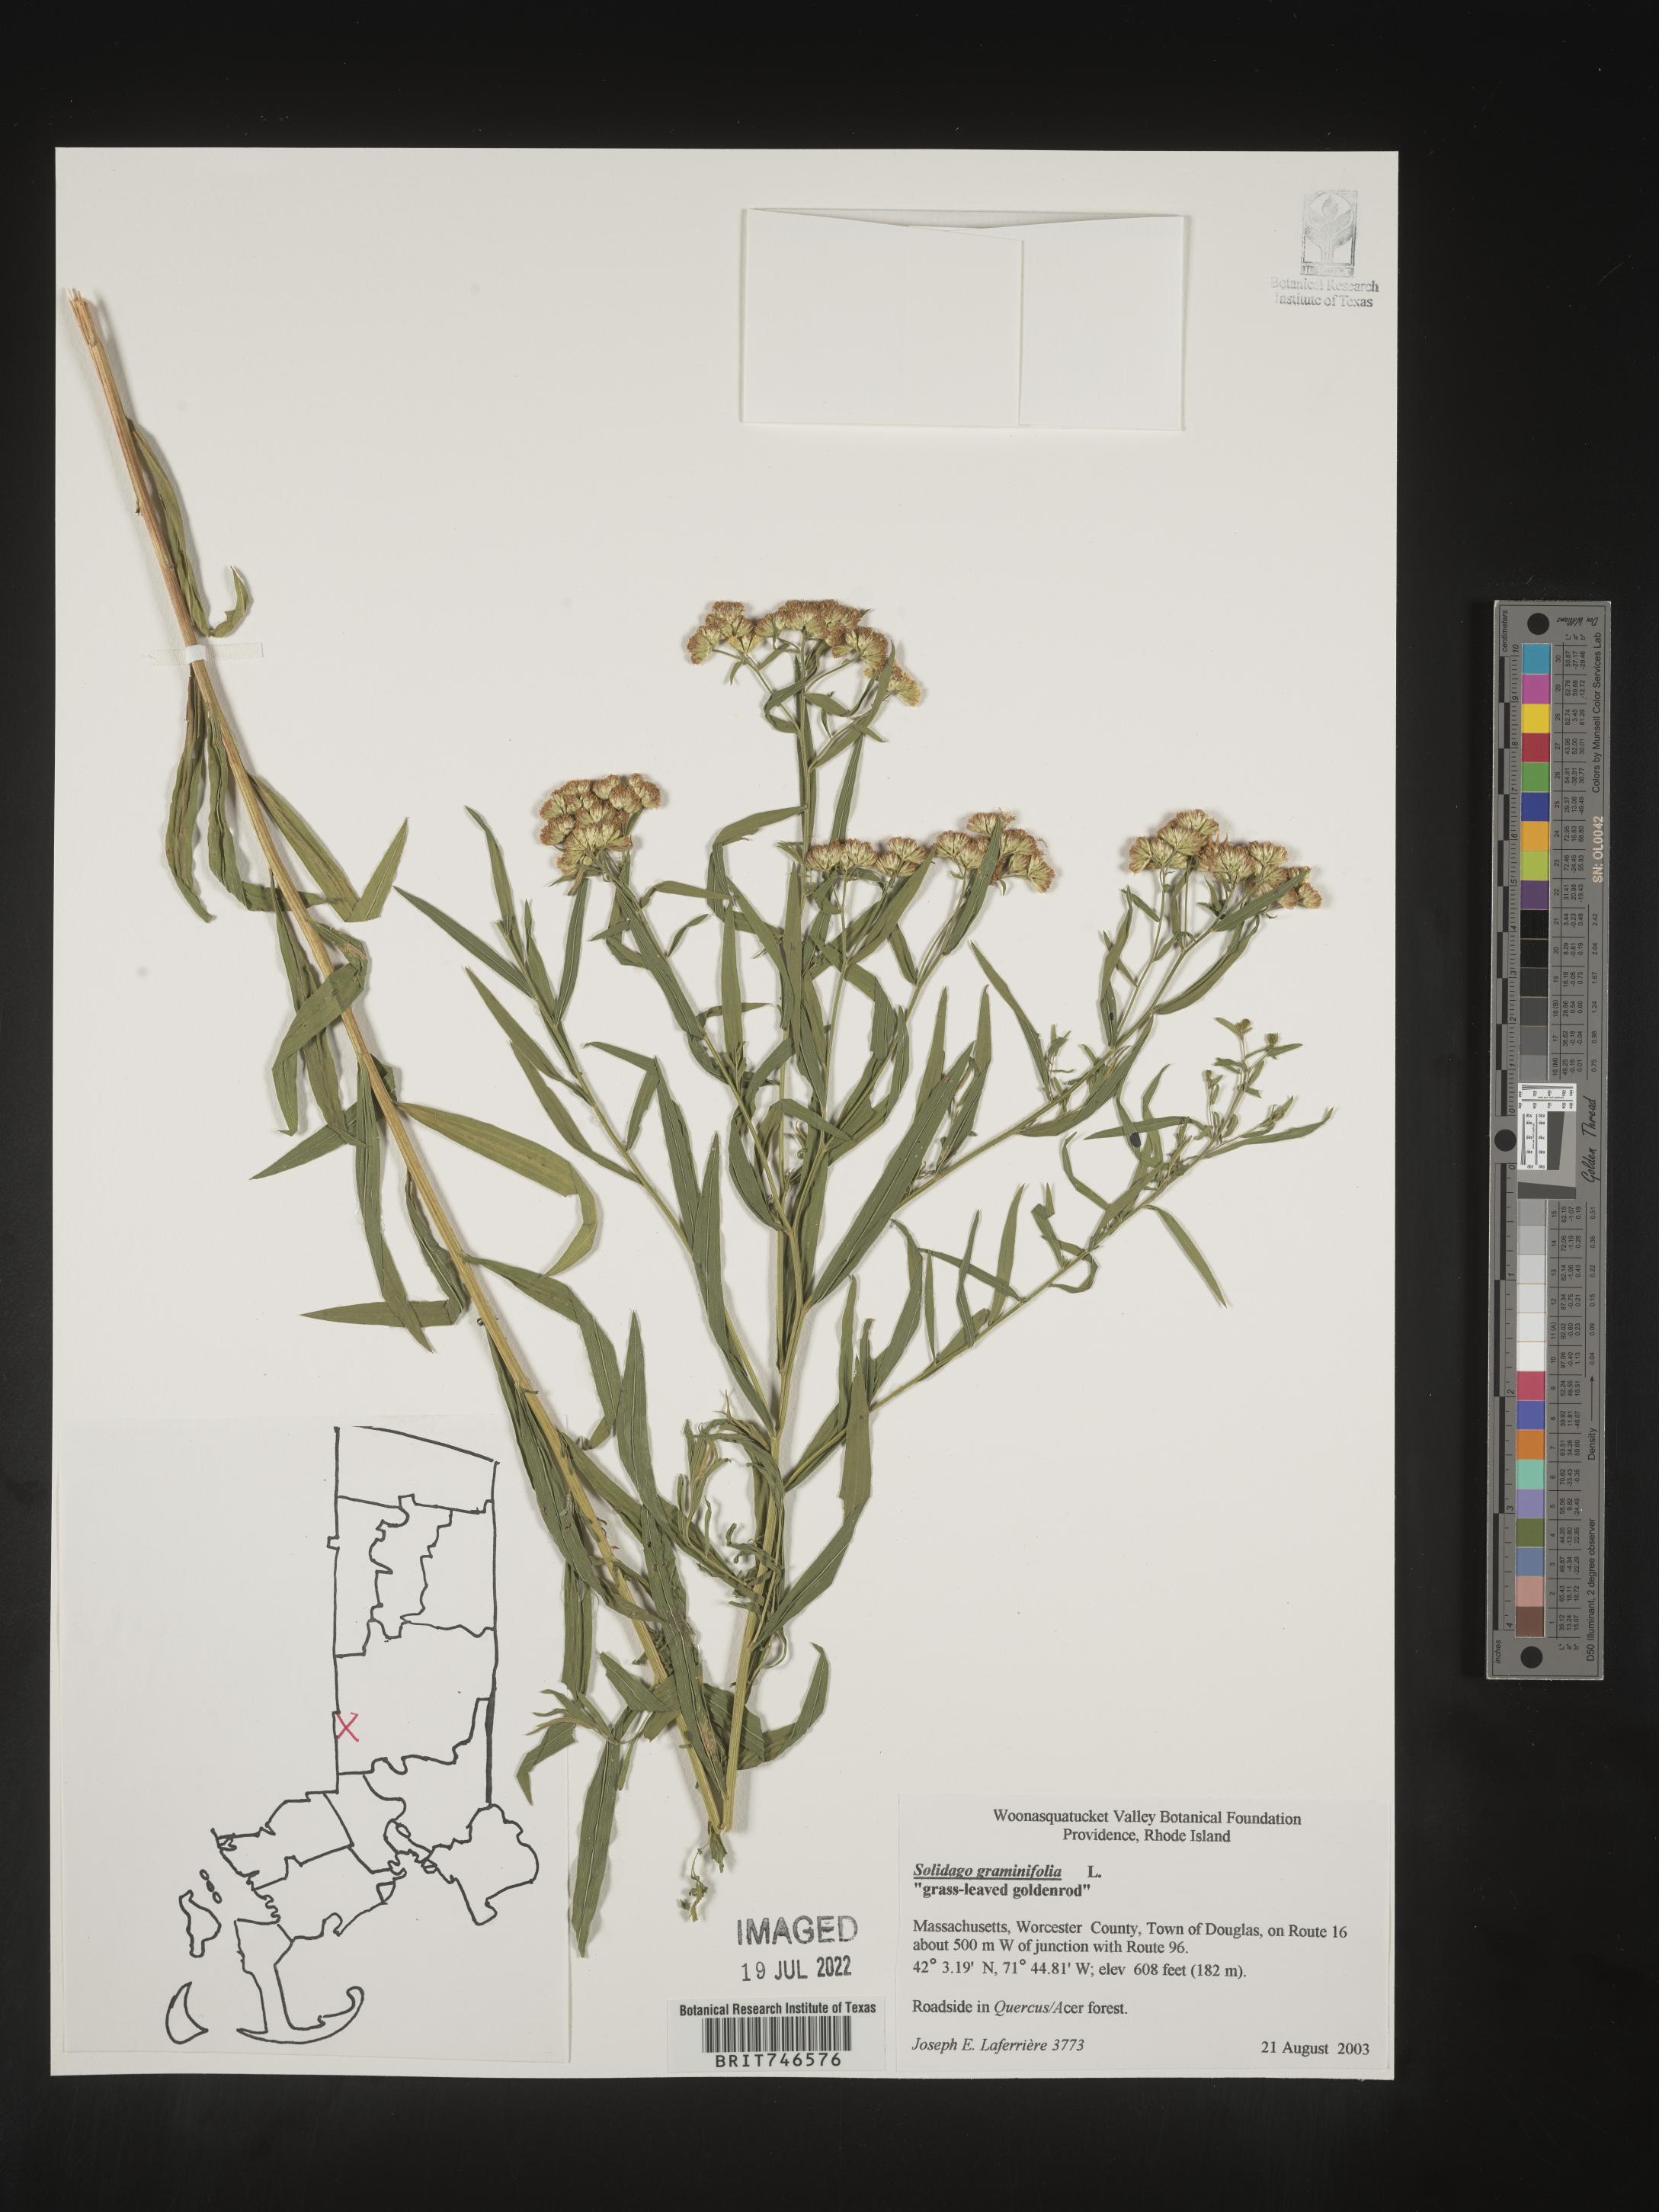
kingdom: Plantae
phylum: Tracheophyta
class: Magnoliopsida
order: Asterales
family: Asteraceae
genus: Euthamia
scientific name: Euthamia graminifolia
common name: Common goldentop
